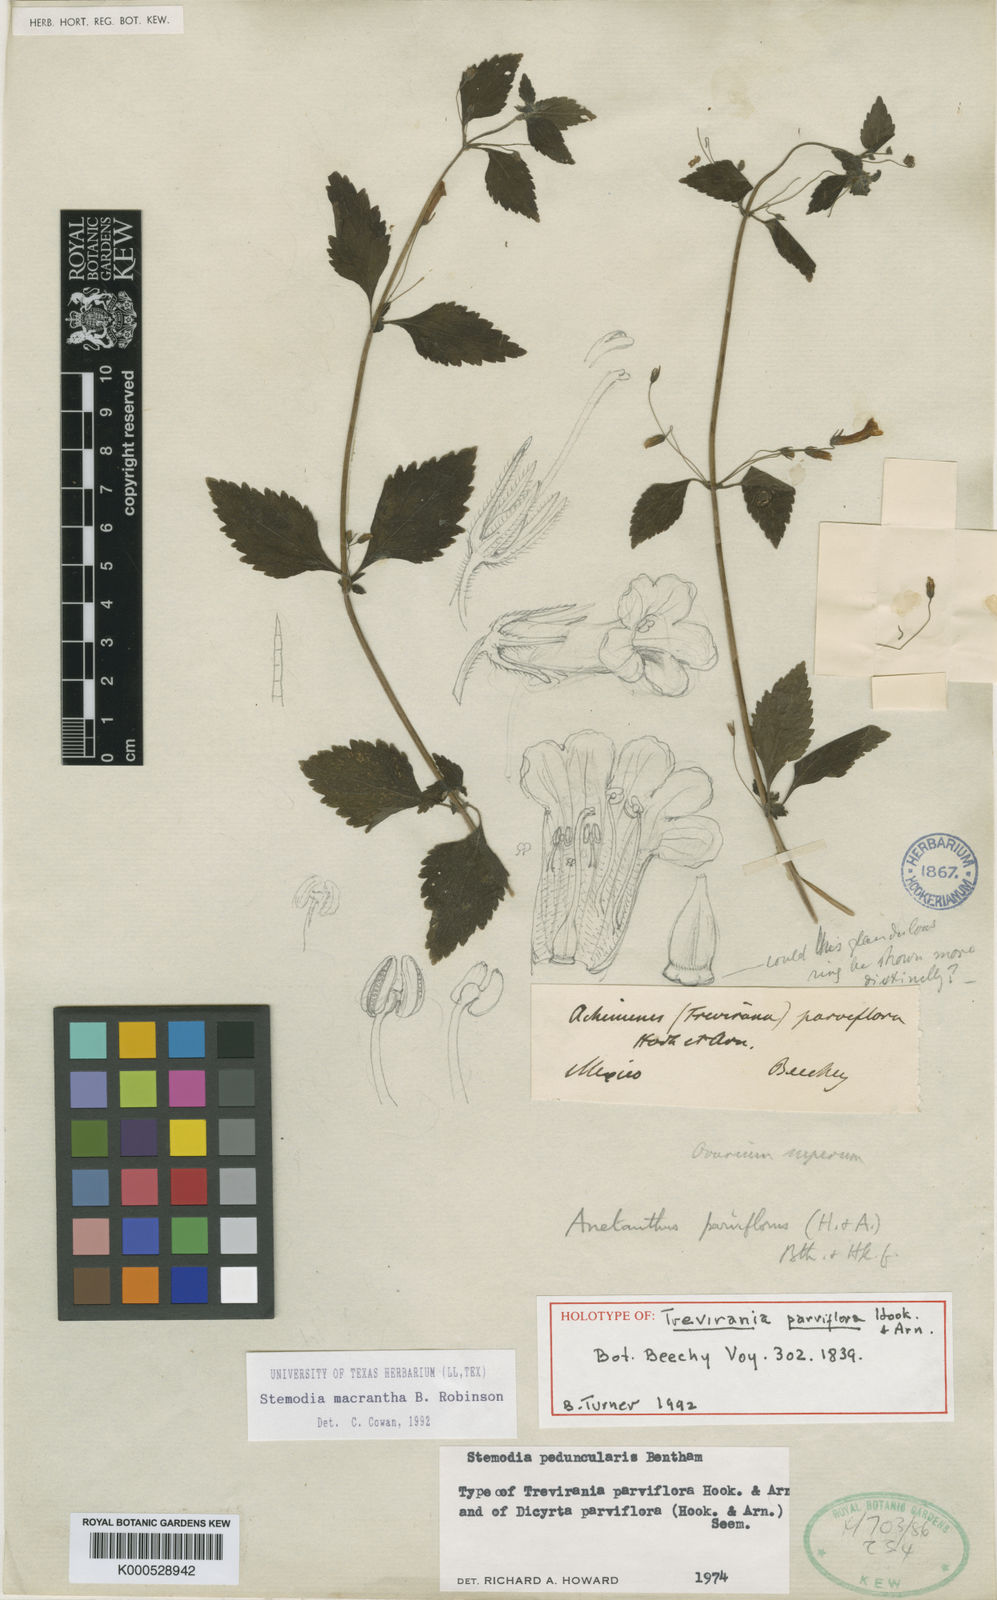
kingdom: Plantae
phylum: Tracheophyta
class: Magnoliopsida
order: Lamiales
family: Plantaginaceae
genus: Stemodia
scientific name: Stemodia macrantha
